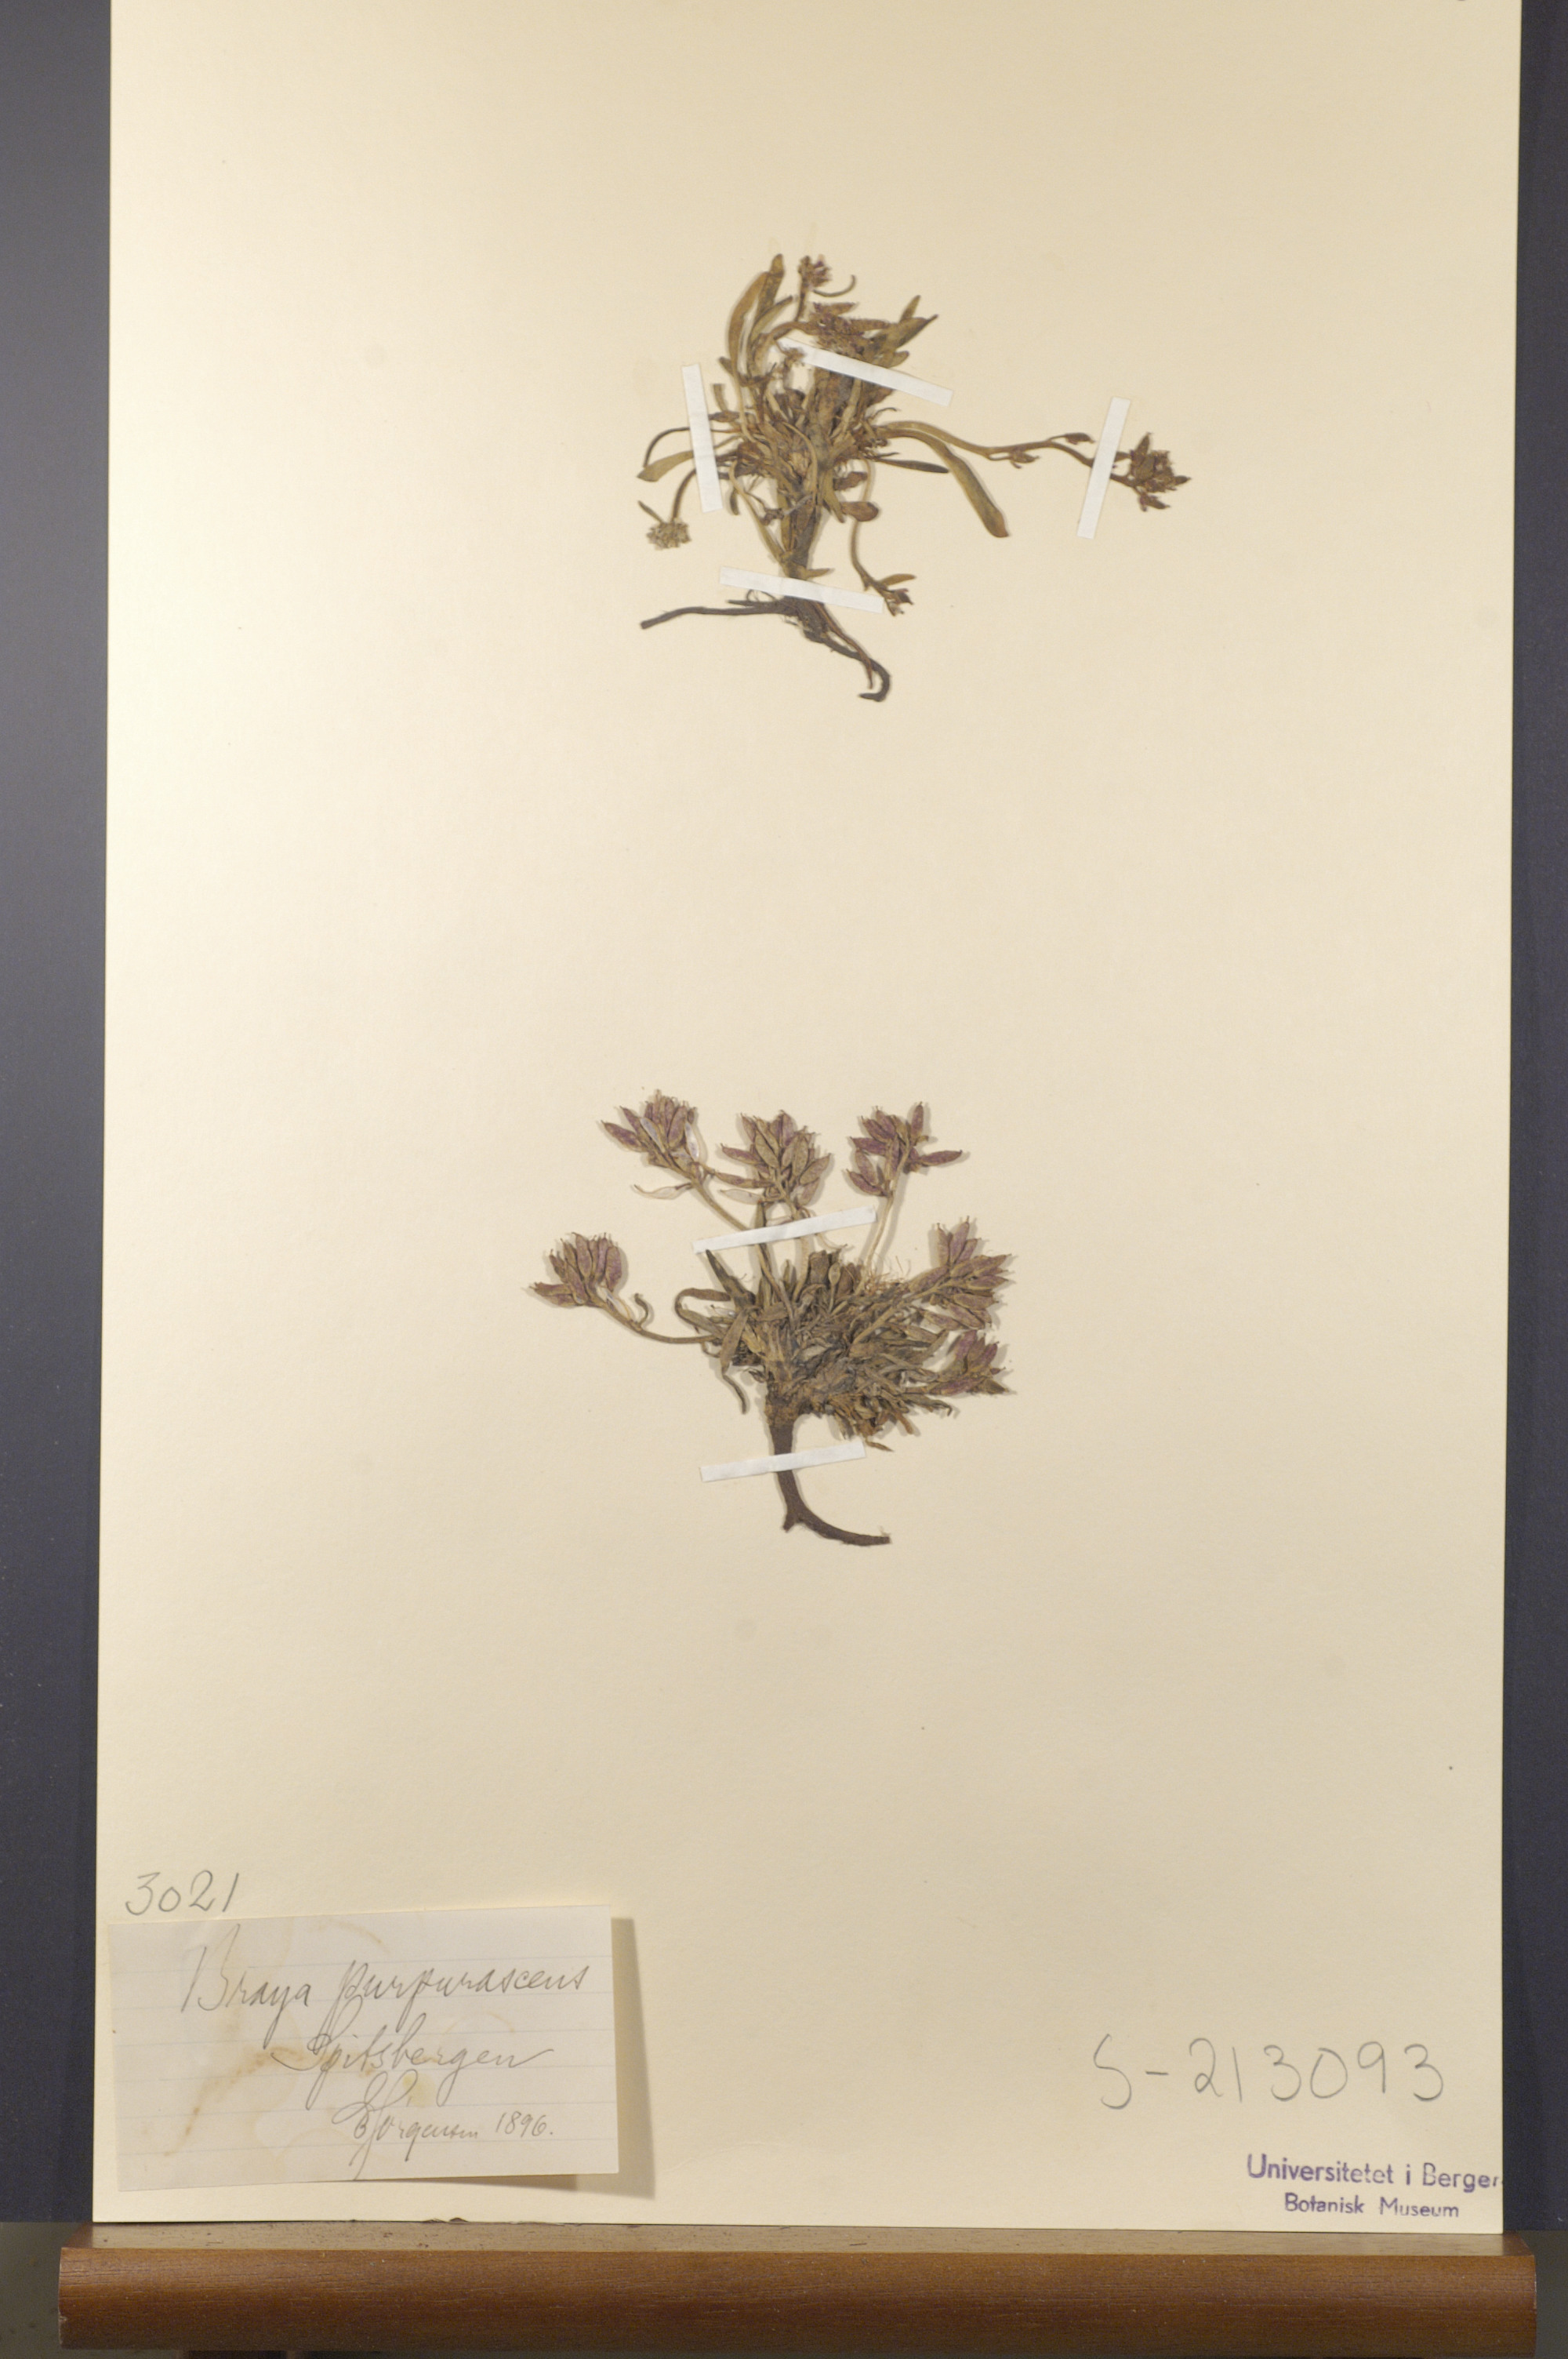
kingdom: Plantae
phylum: Tracheophyta
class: Magnoliopsida
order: Brassicales
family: Brassicaceae
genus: Braya
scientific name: Braya purpurascens
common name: Alpine braya
